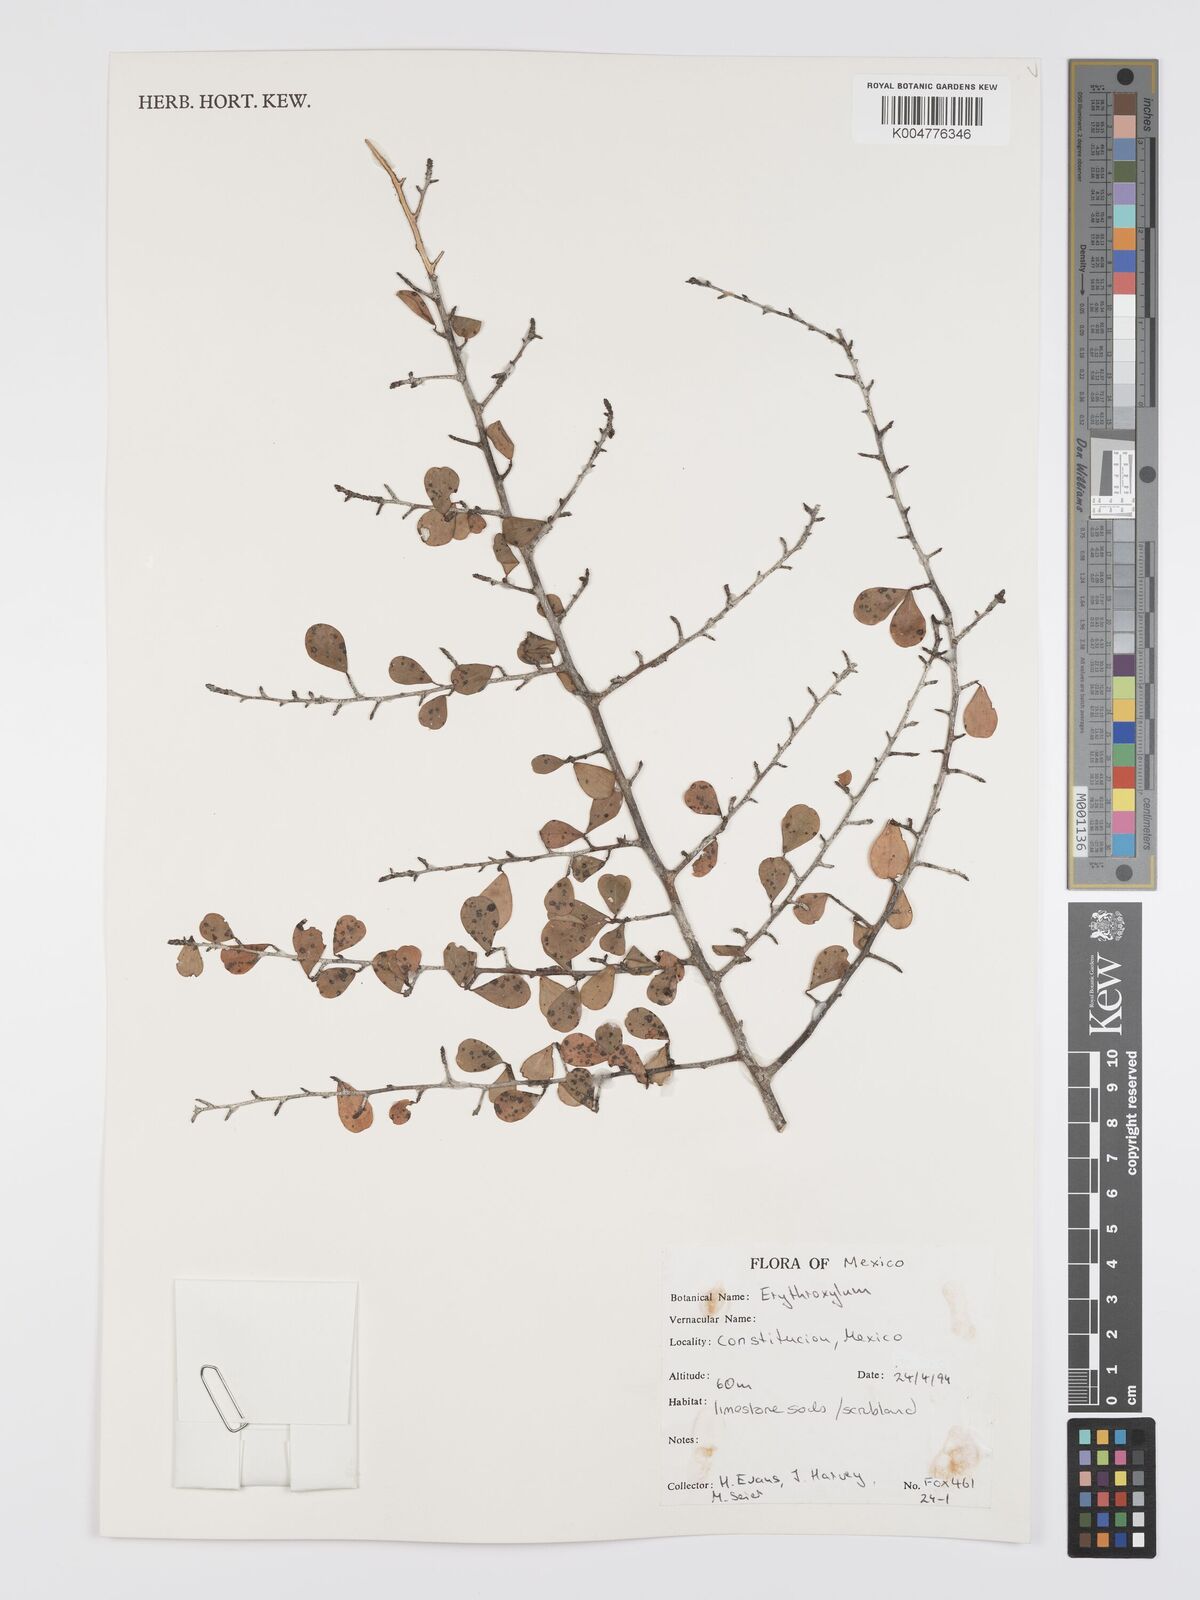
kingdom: Plantae
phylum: Tracheophyta
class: Magnoliopsida
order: Malpighiales
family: Erythroxylaceae
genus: Erythroxylum
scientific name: Erythroxylum
